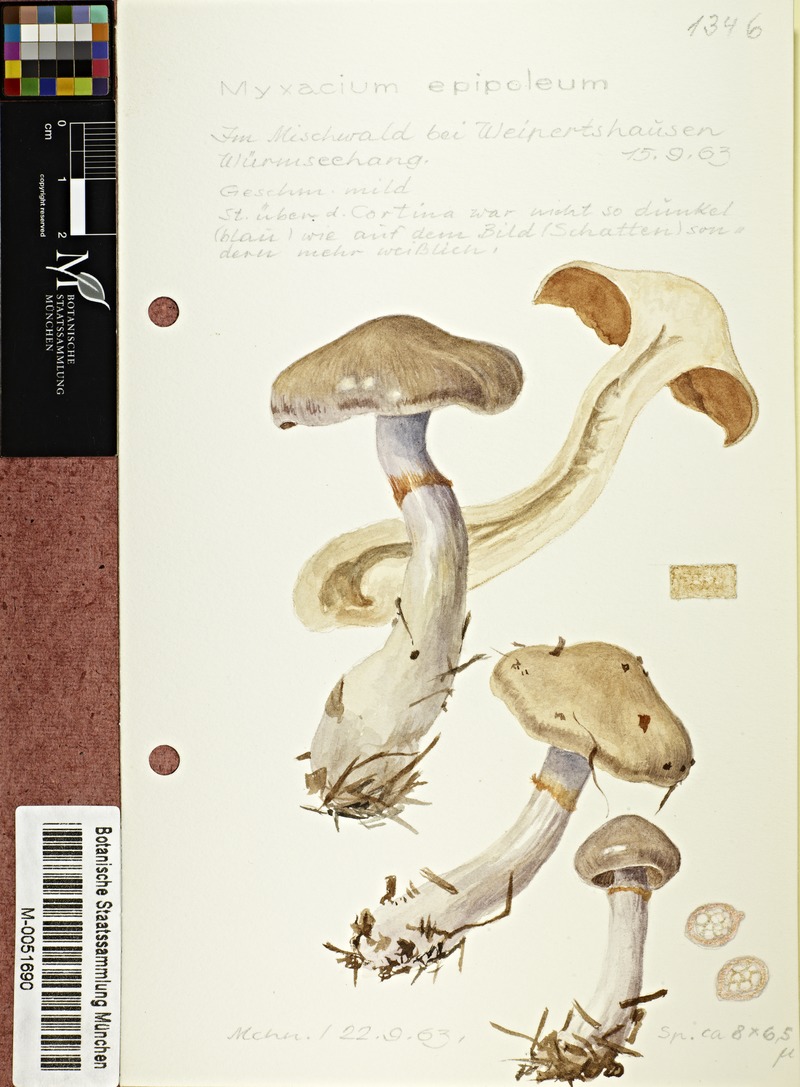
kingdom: Fungi
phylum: Basidiomycota
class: Agaricomycetes
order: Agaricales
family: Cortinariaceae
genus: Cortinarius
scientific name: Cortinarius epipoleus
